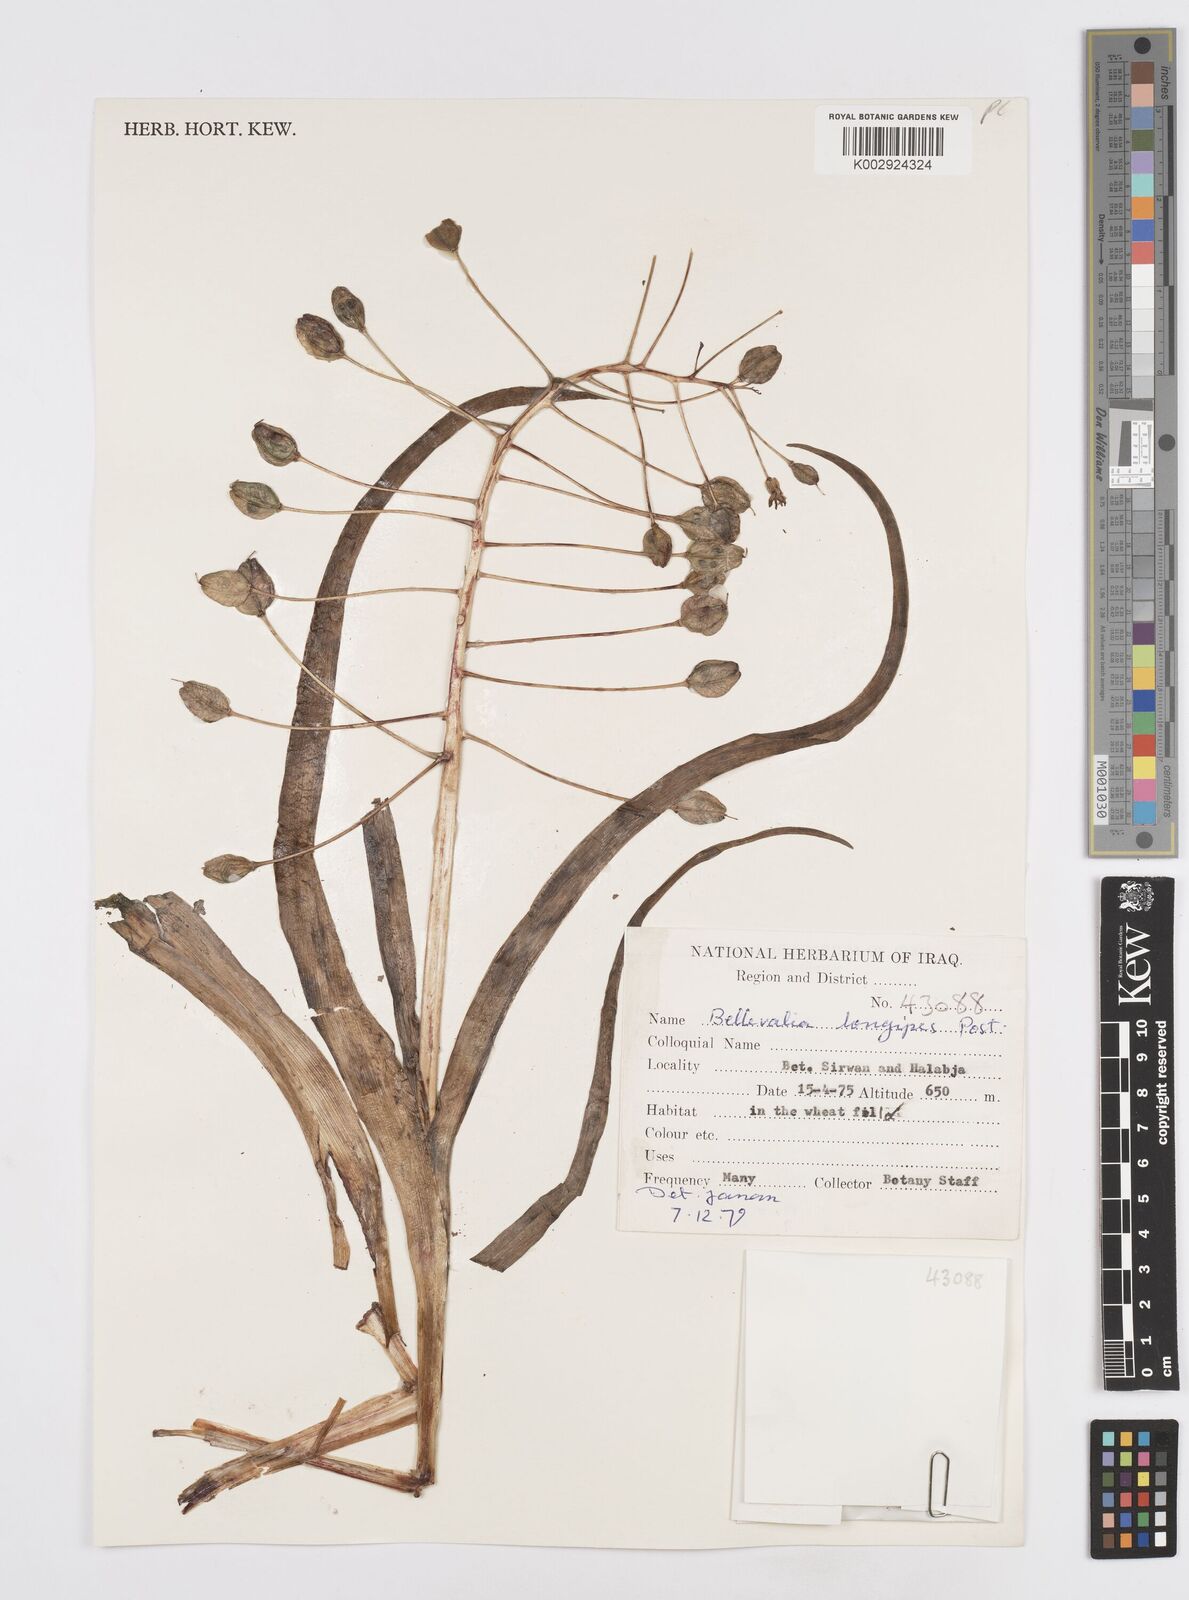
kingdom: Plantae
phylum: Tracheophyta
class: Liliopsida
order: Asparagales
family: Asparagaceae
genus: Bellevalia
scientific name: Bellevalia longipes
